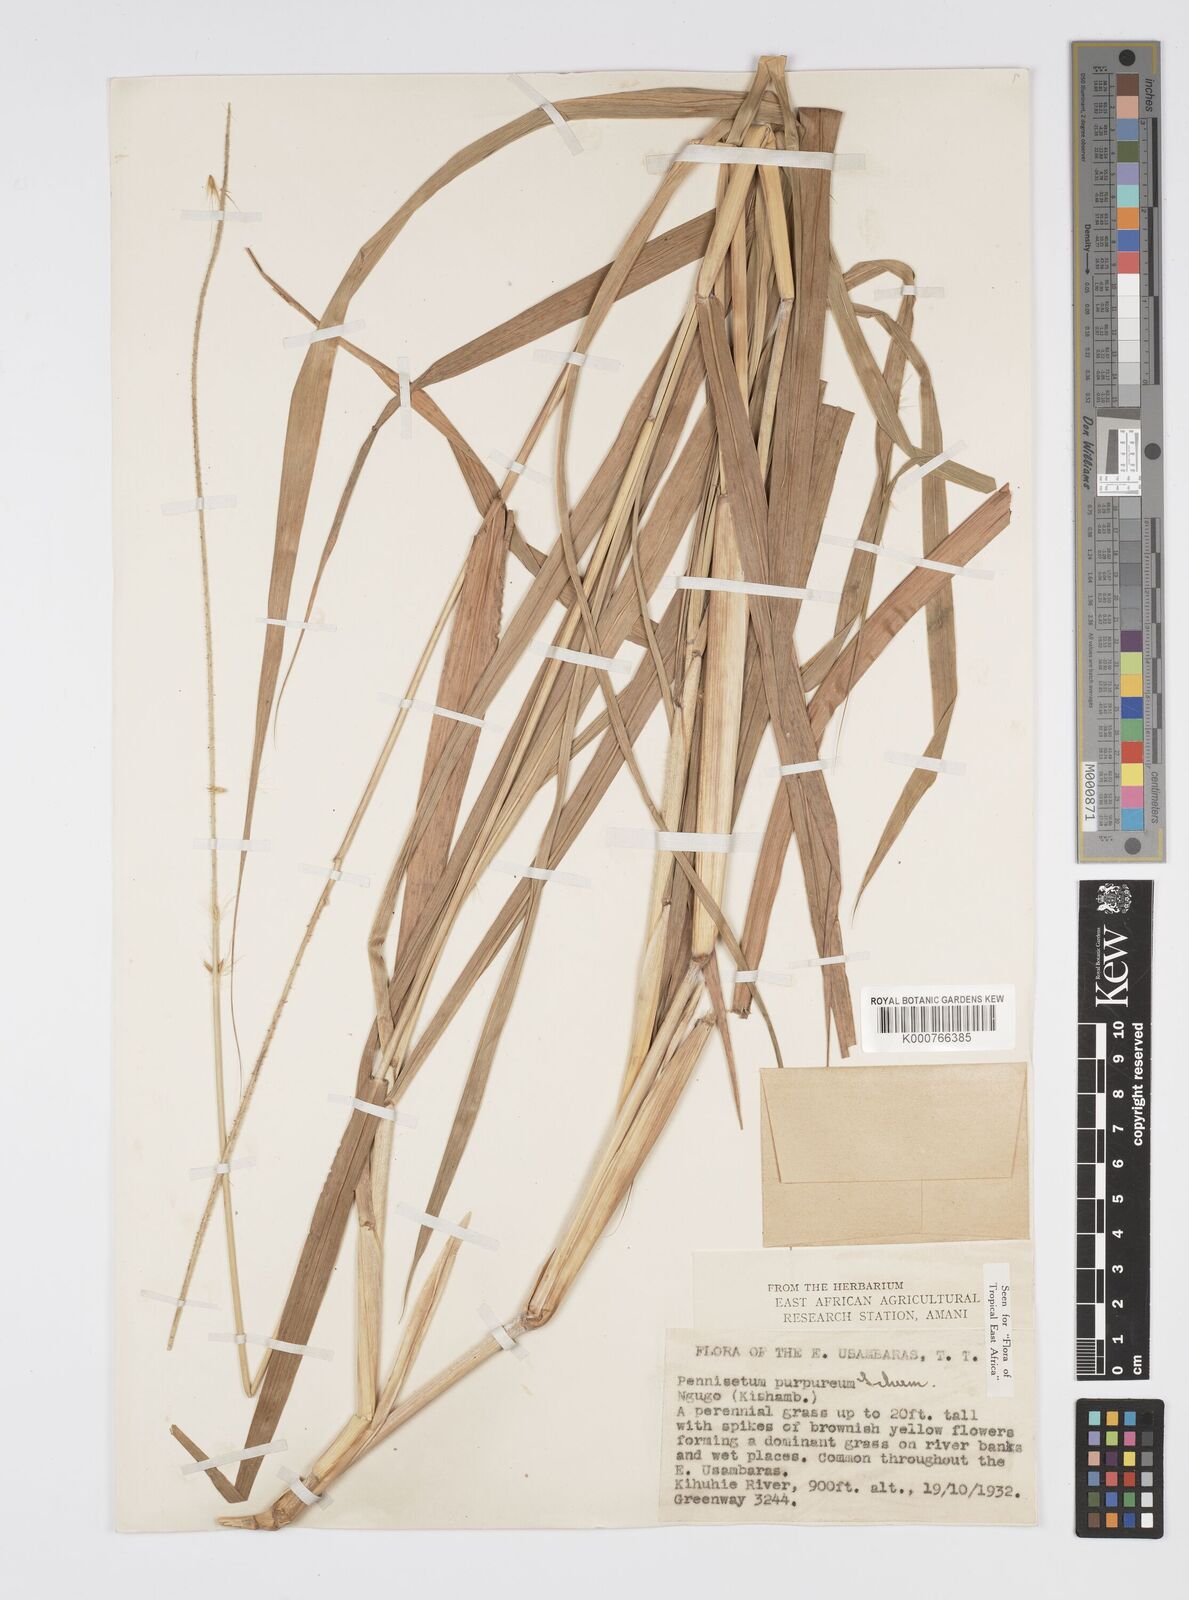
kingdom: Plantae
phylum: Tracheophyta
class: Liliopsida
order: Poales
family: Poaceae
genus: Cenchrus
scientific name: Cenchrus purpureus
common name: Elephant grass
